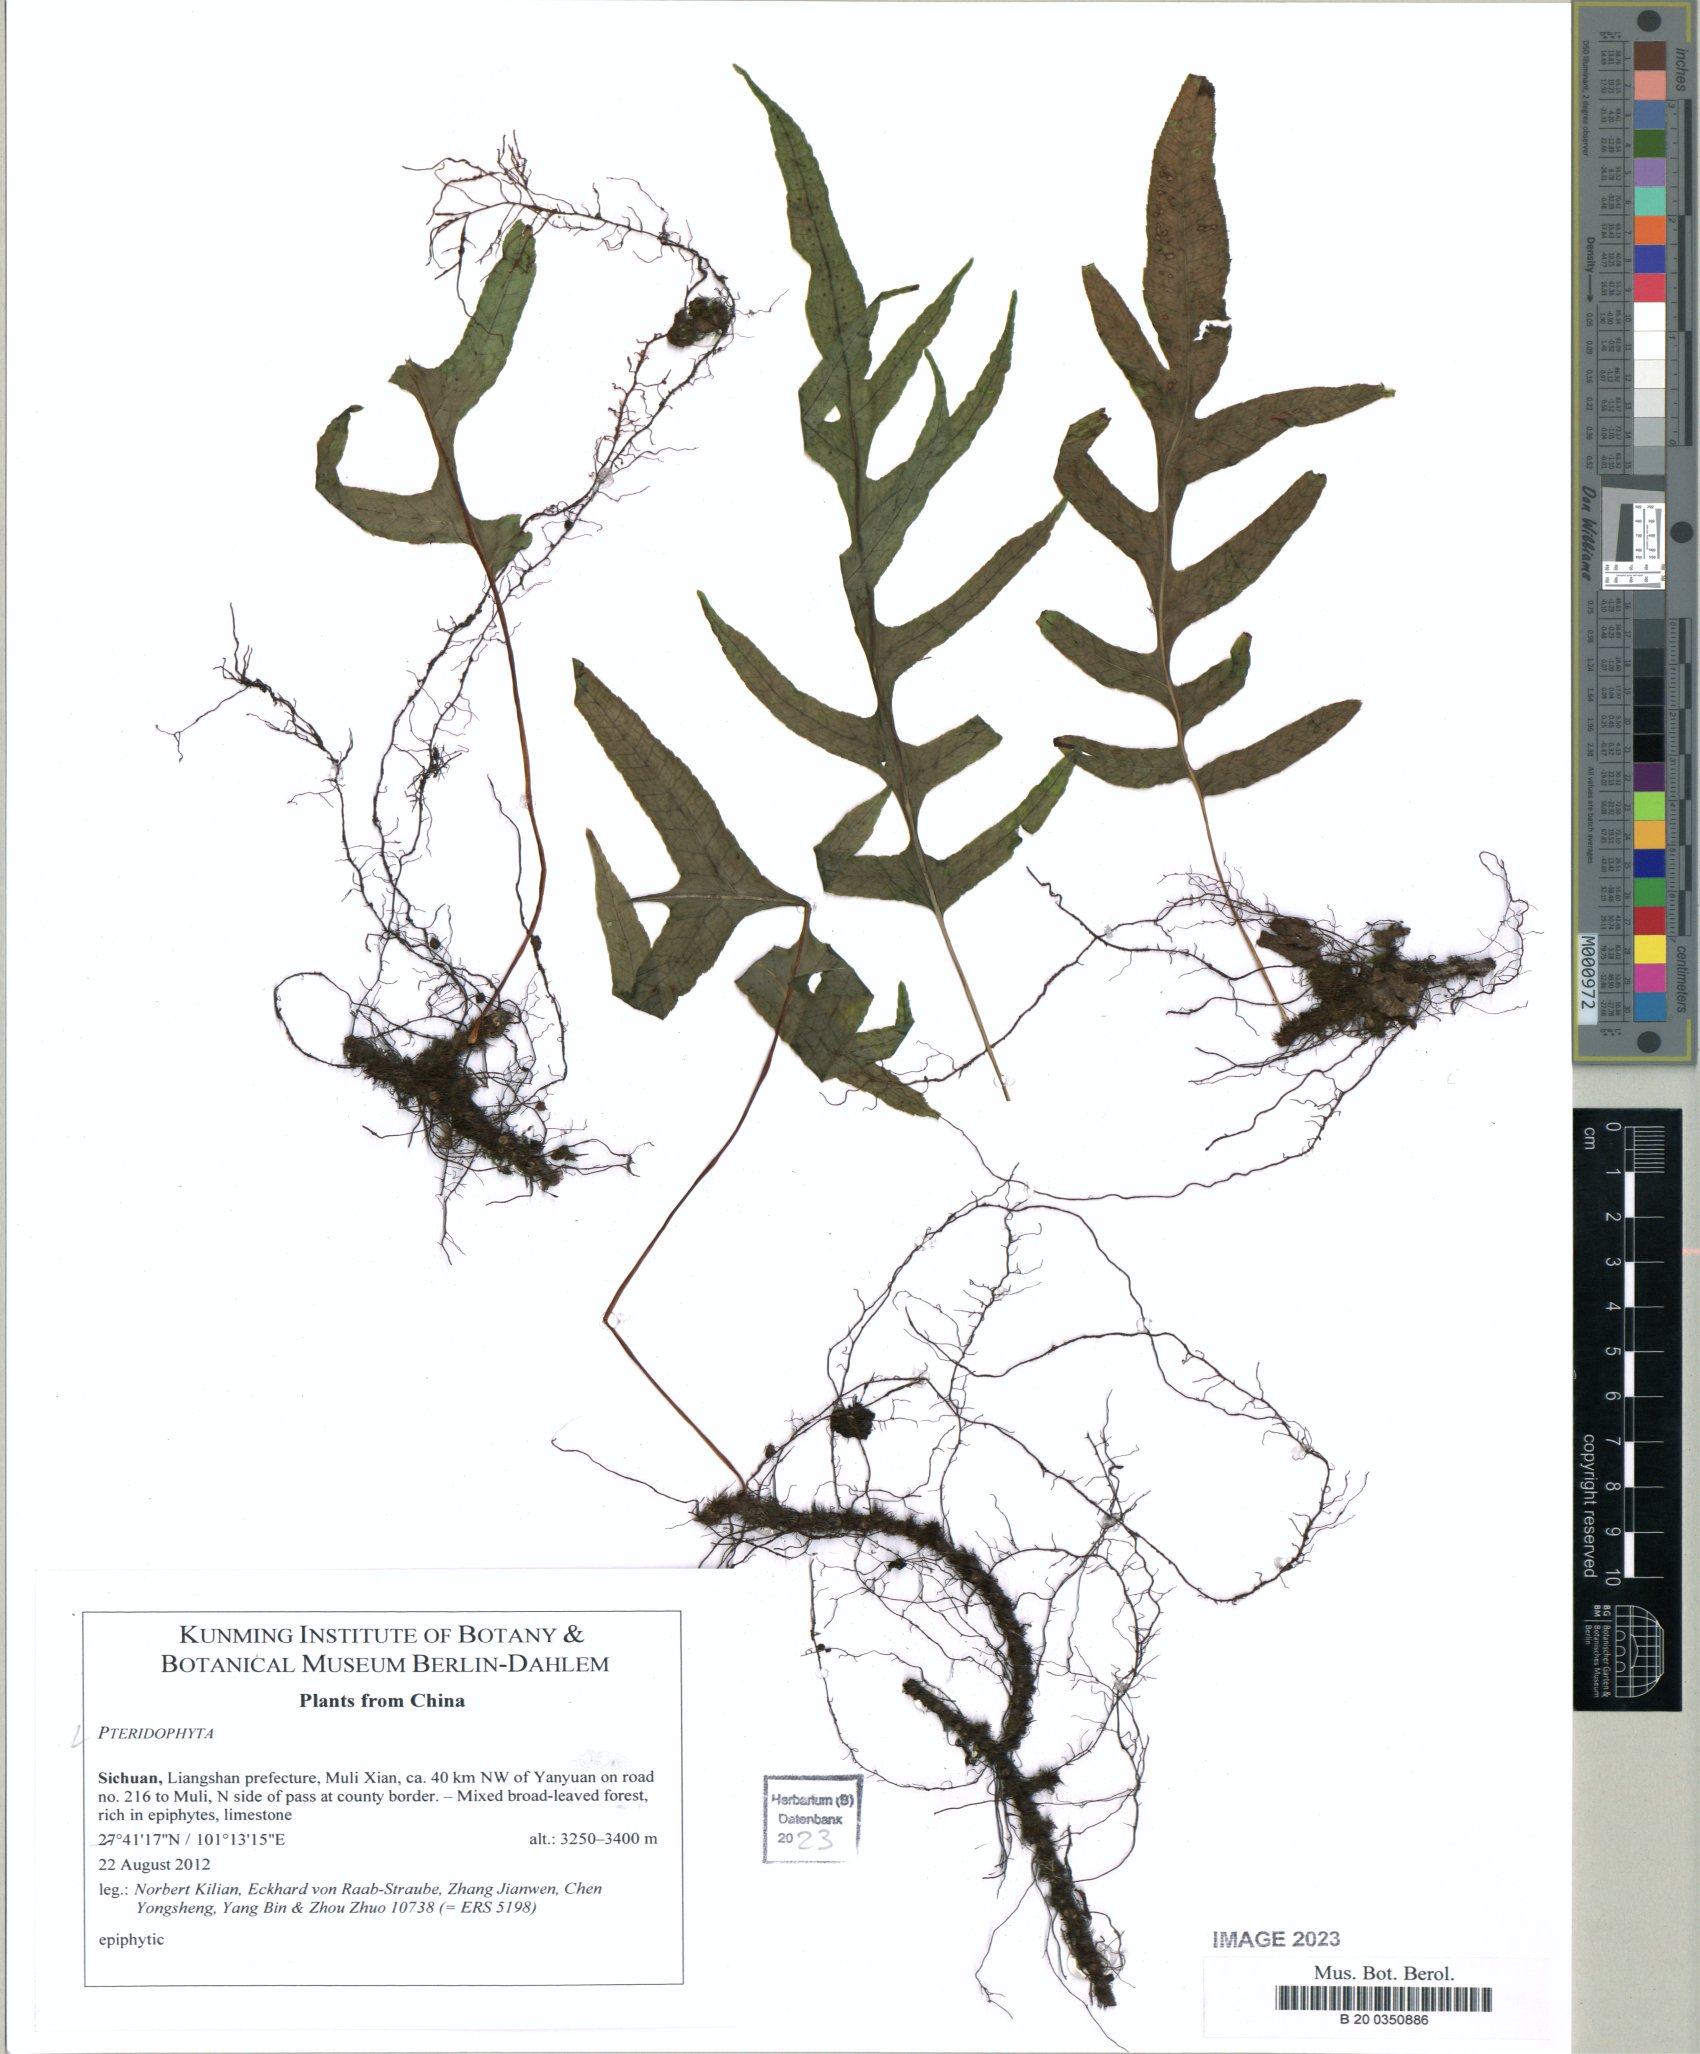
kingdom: Plantae
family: Pteridophyta
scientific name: Pteridophyta
